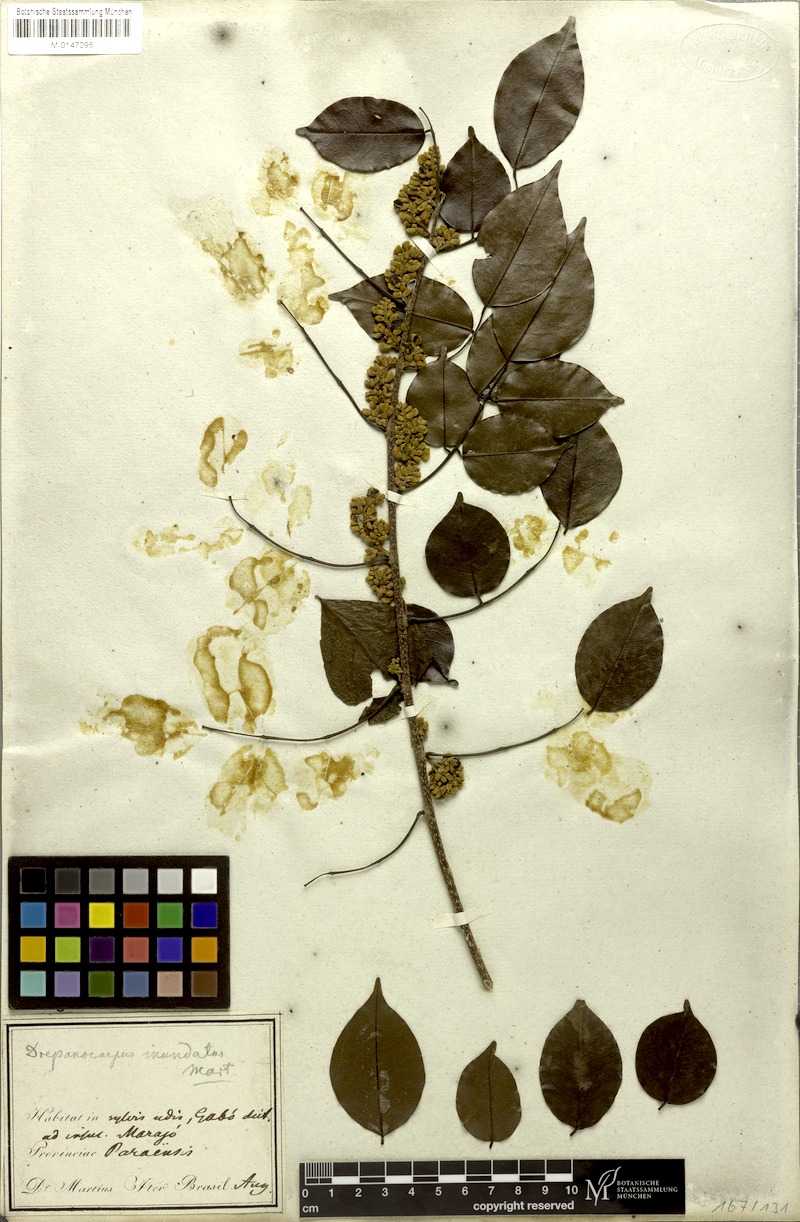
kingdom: Plantae
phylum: Tracheophyta
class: Magnoliopsida
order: Fabales
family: Fabaceae
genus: Machaerium
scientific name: Machaerium inundatum
